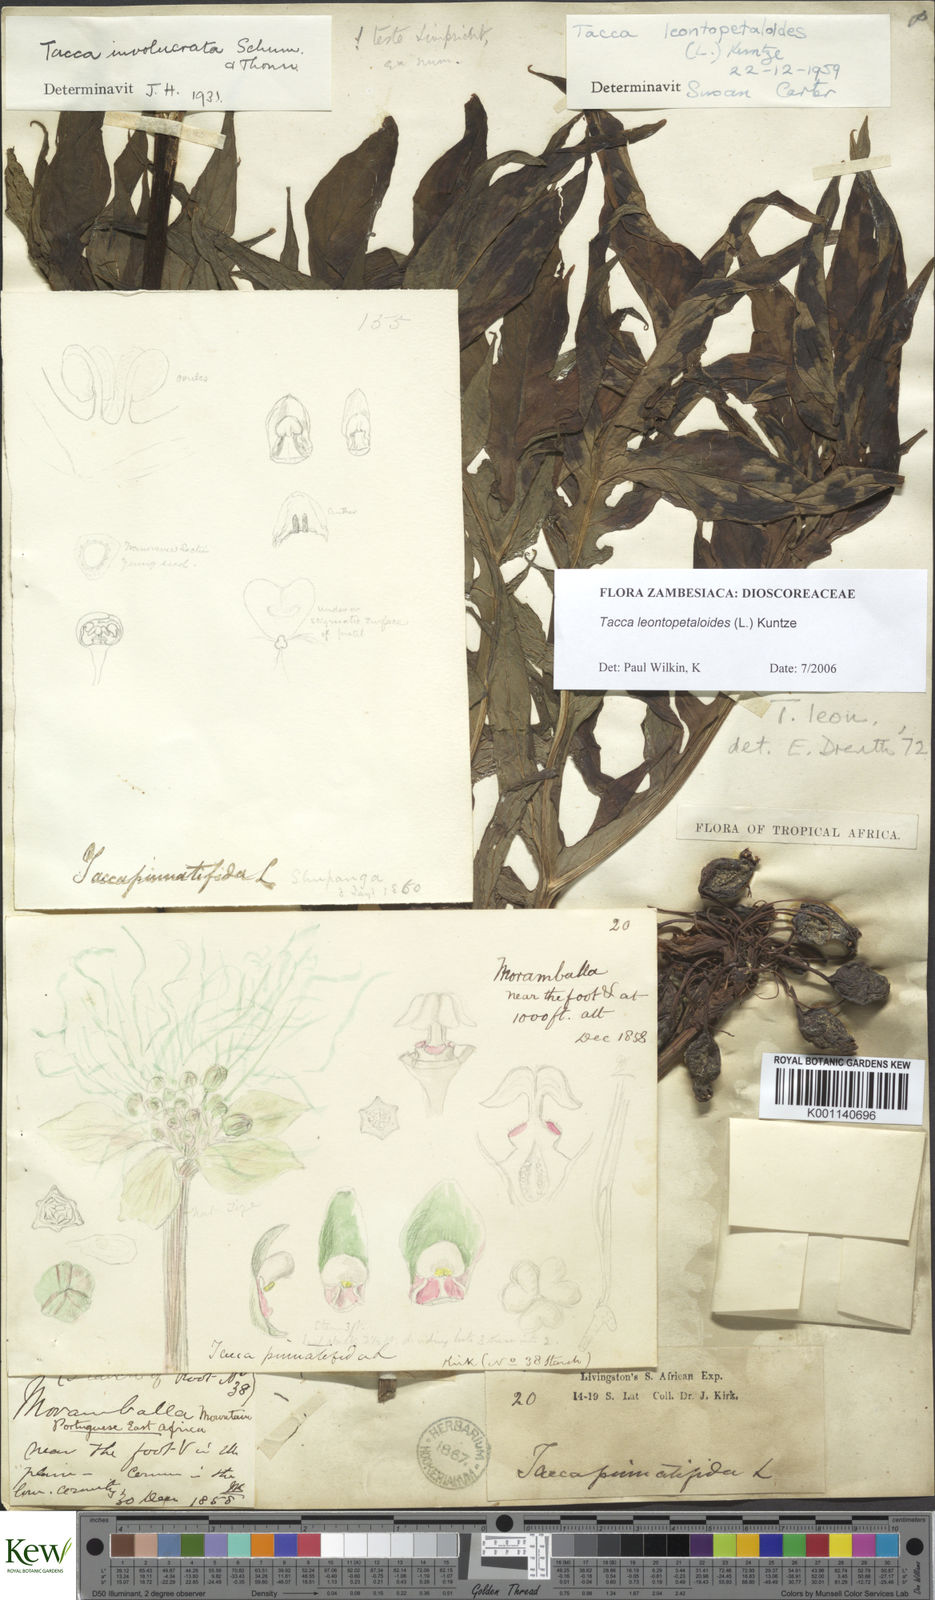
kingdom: Plantae
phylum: Tracheophyta
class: Liliopsida
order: Dioscoreales
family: Dioscoreaceae
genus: Tacca
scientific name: Tacca leontopetaloides
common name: Arrowroot
